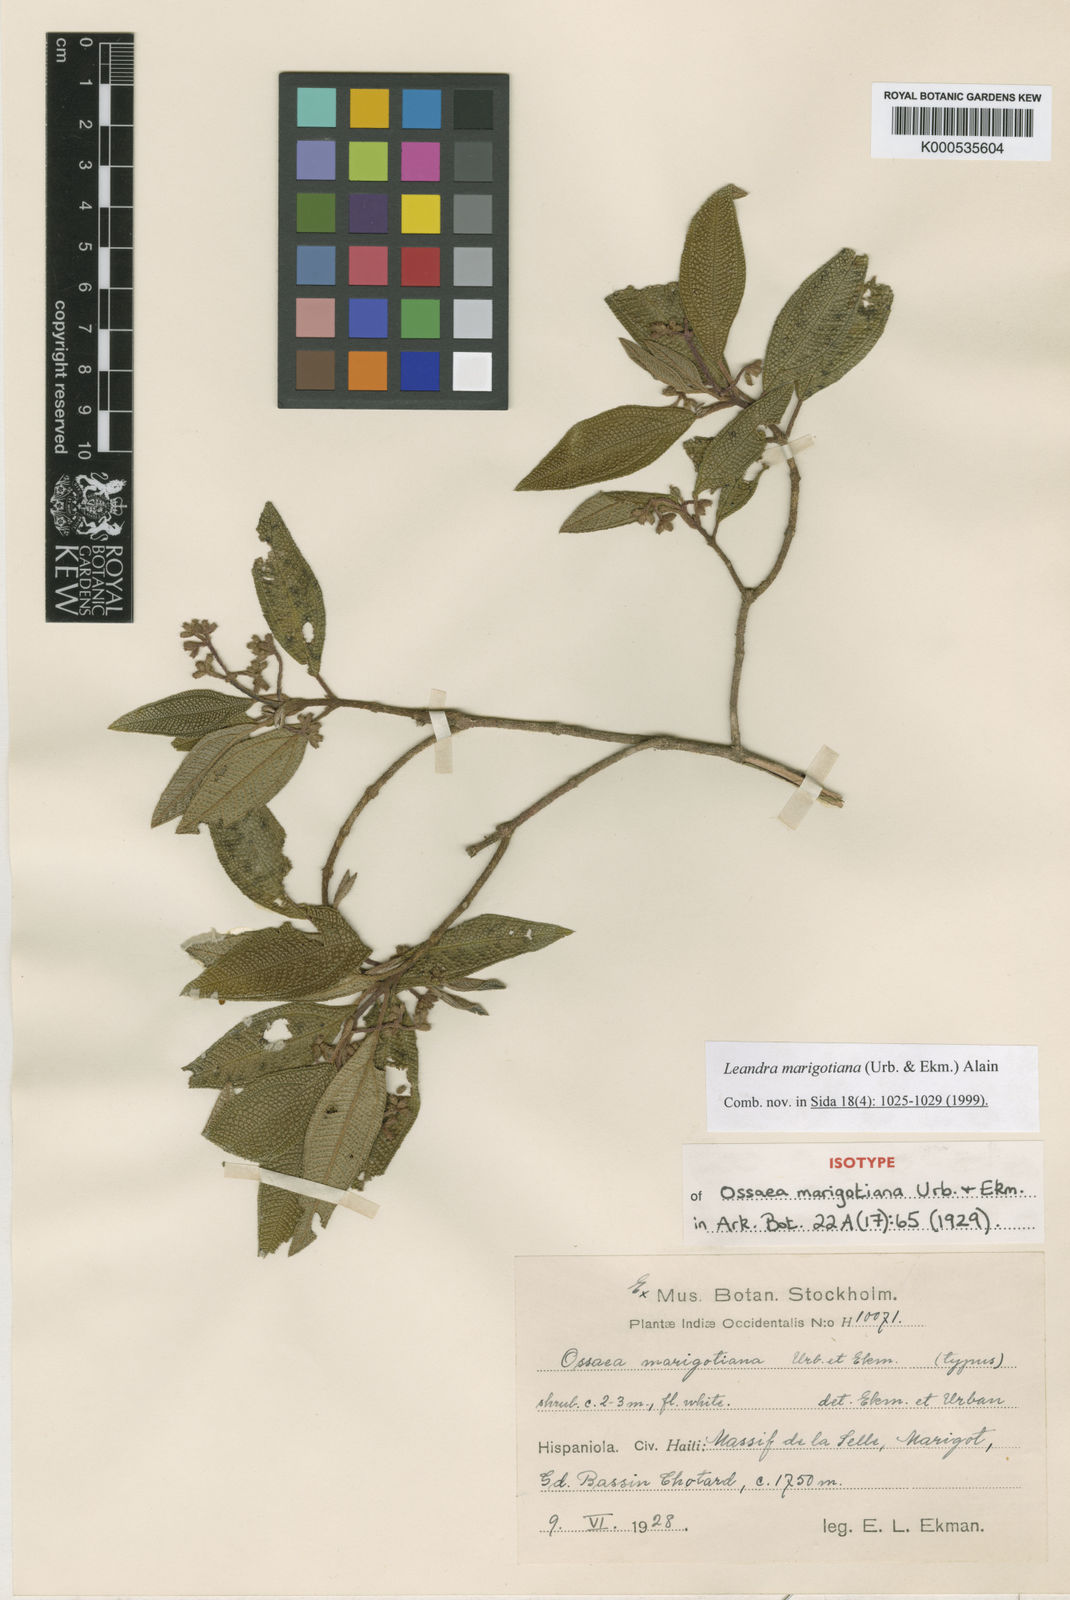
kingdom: Plantae
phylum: Tracheophyta
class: Magnoliopsida
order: Myrtales
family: Melastomataceae
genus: Miconia
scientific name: Miconia marigotiana
